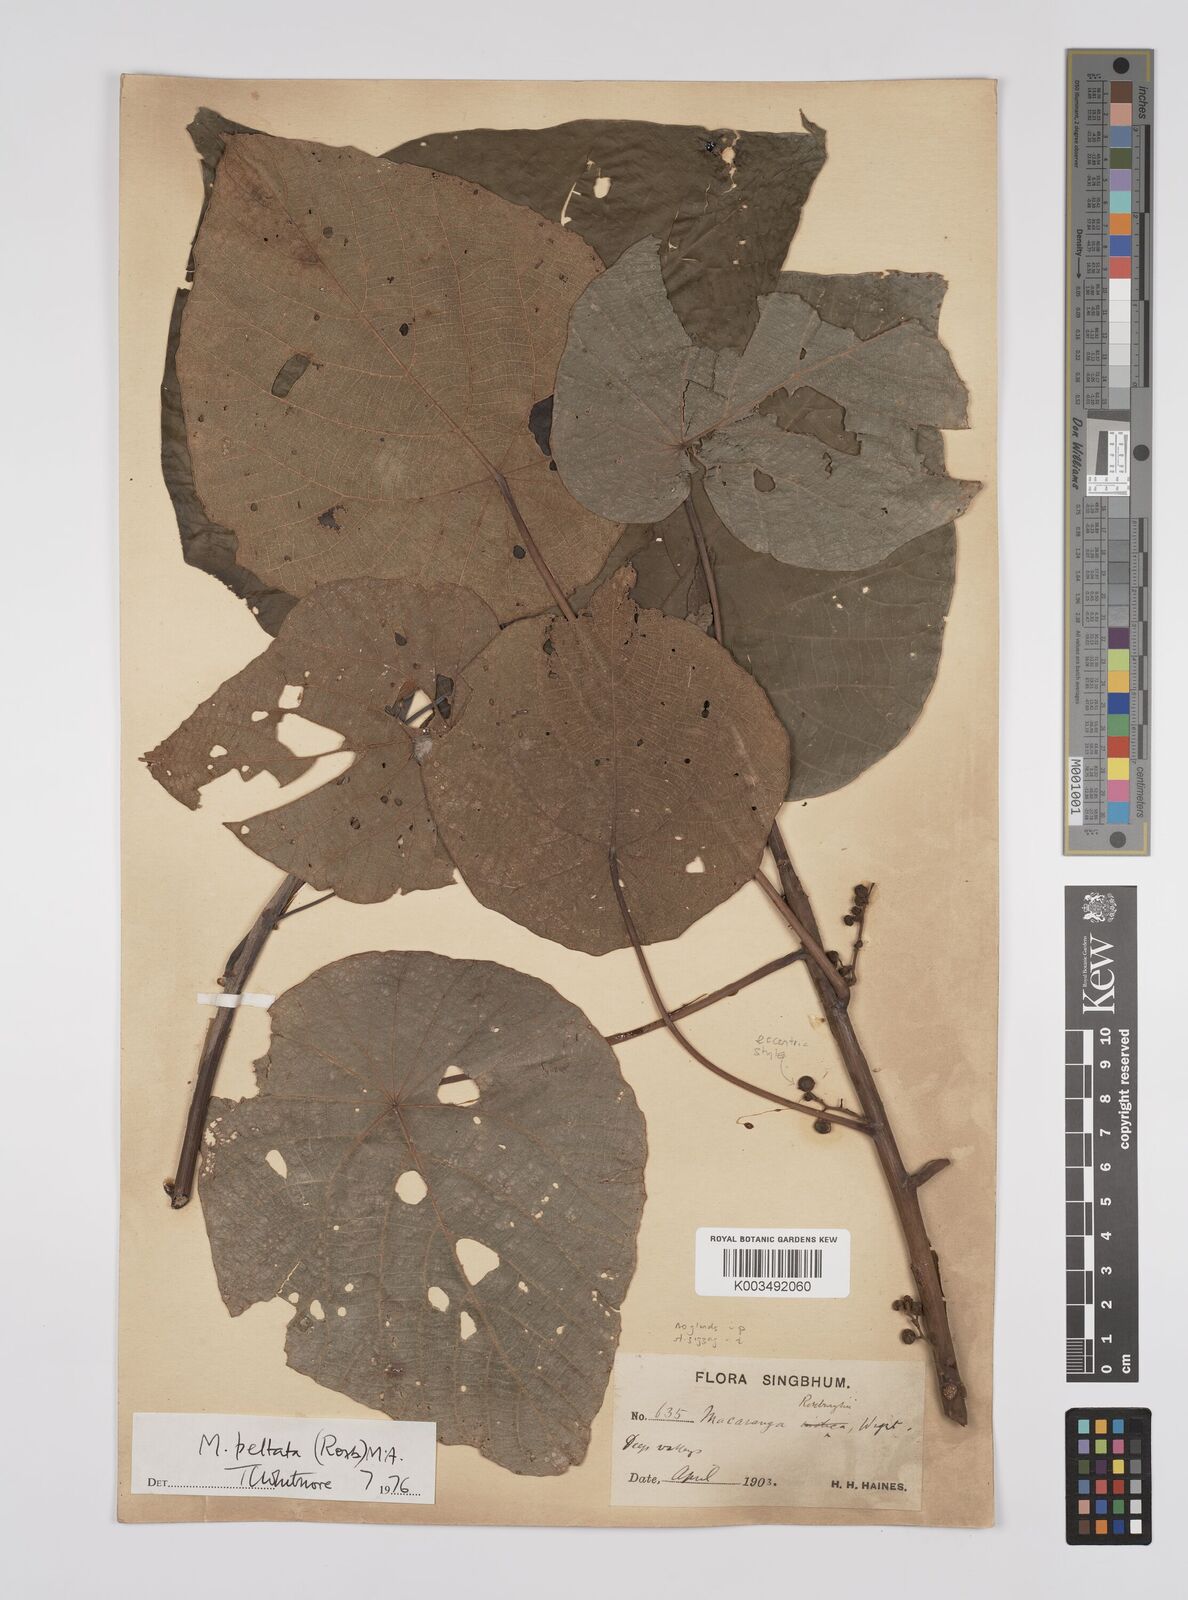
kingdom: Plantae
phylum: Tracheophyta
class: Magnoliopsida
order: Malpighiales
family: Euphorbiaceae
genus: Macaranga
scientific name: Macaranga peltata
